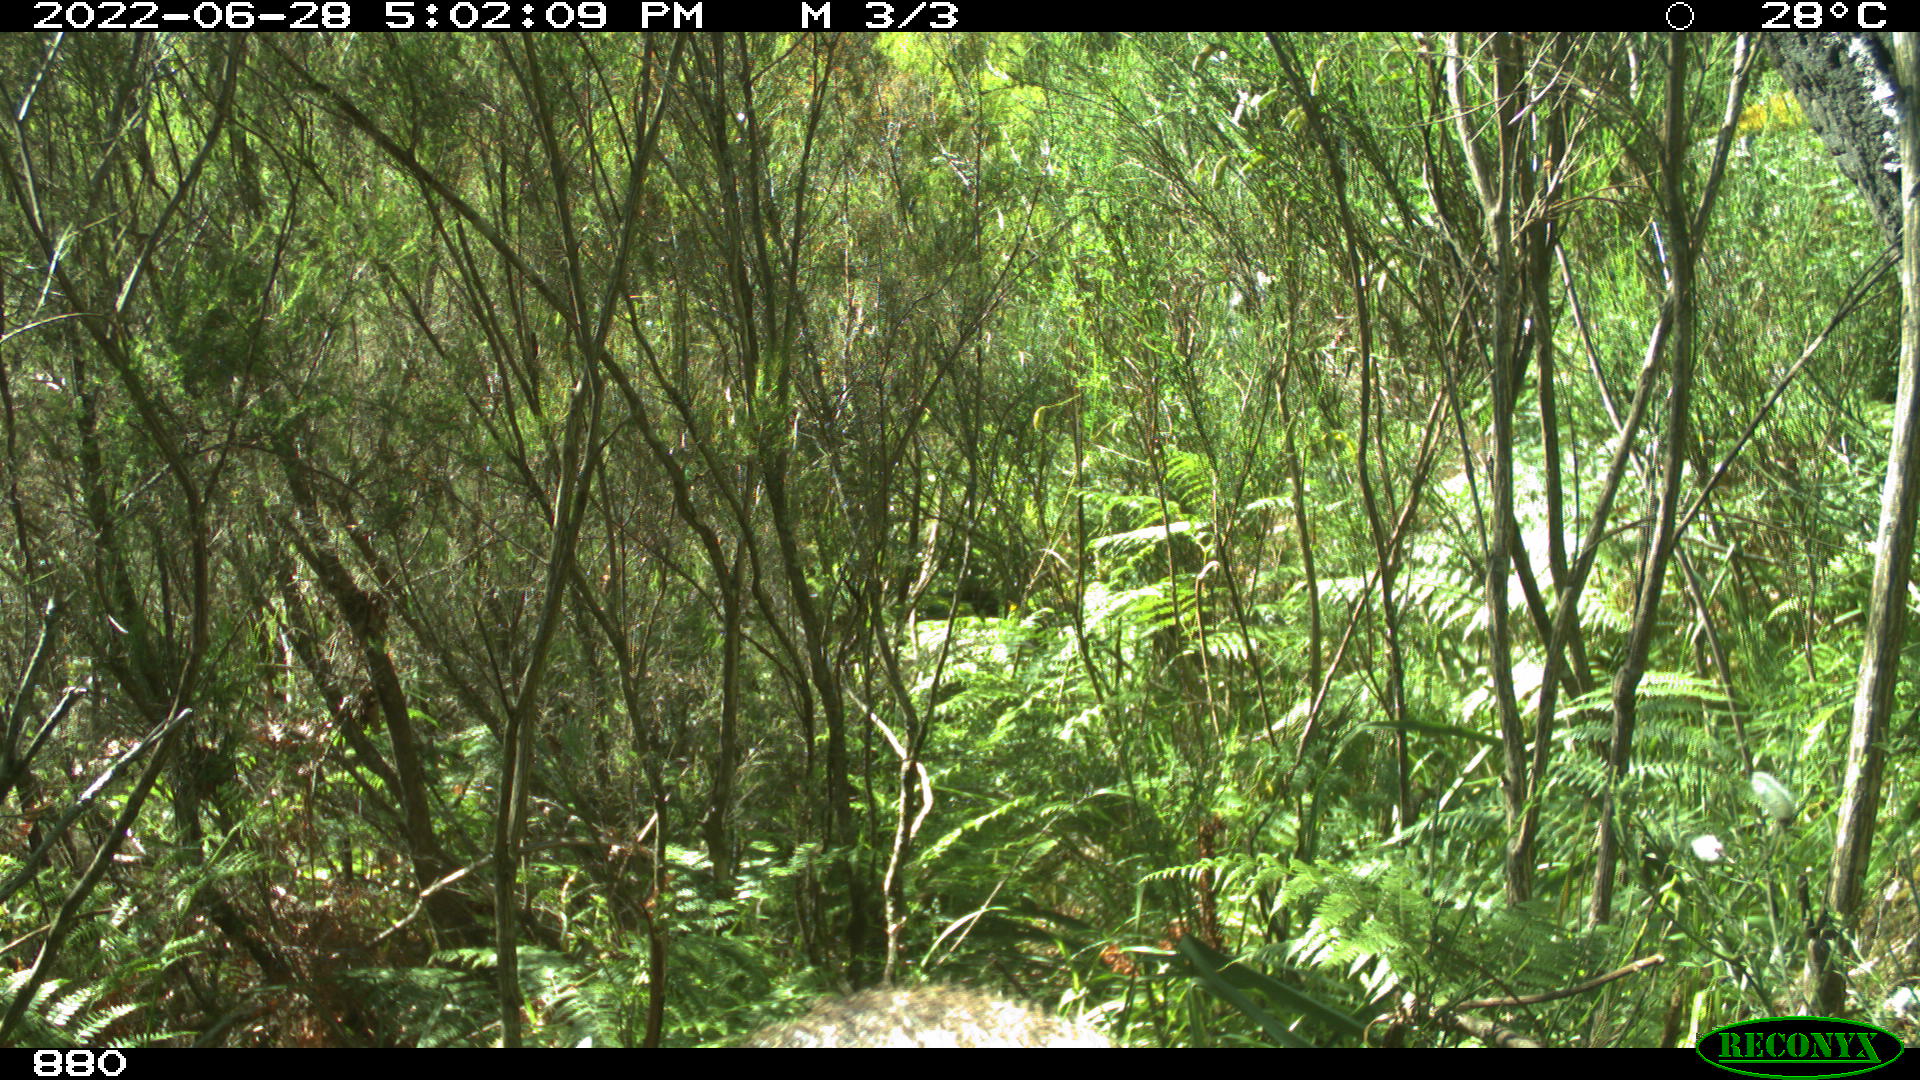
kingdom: Animalia
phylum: Chordata
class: Mammalia
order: Artiodactyla
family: Suidae
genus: Sus
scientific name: Sus scrofa
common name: Wild boar
